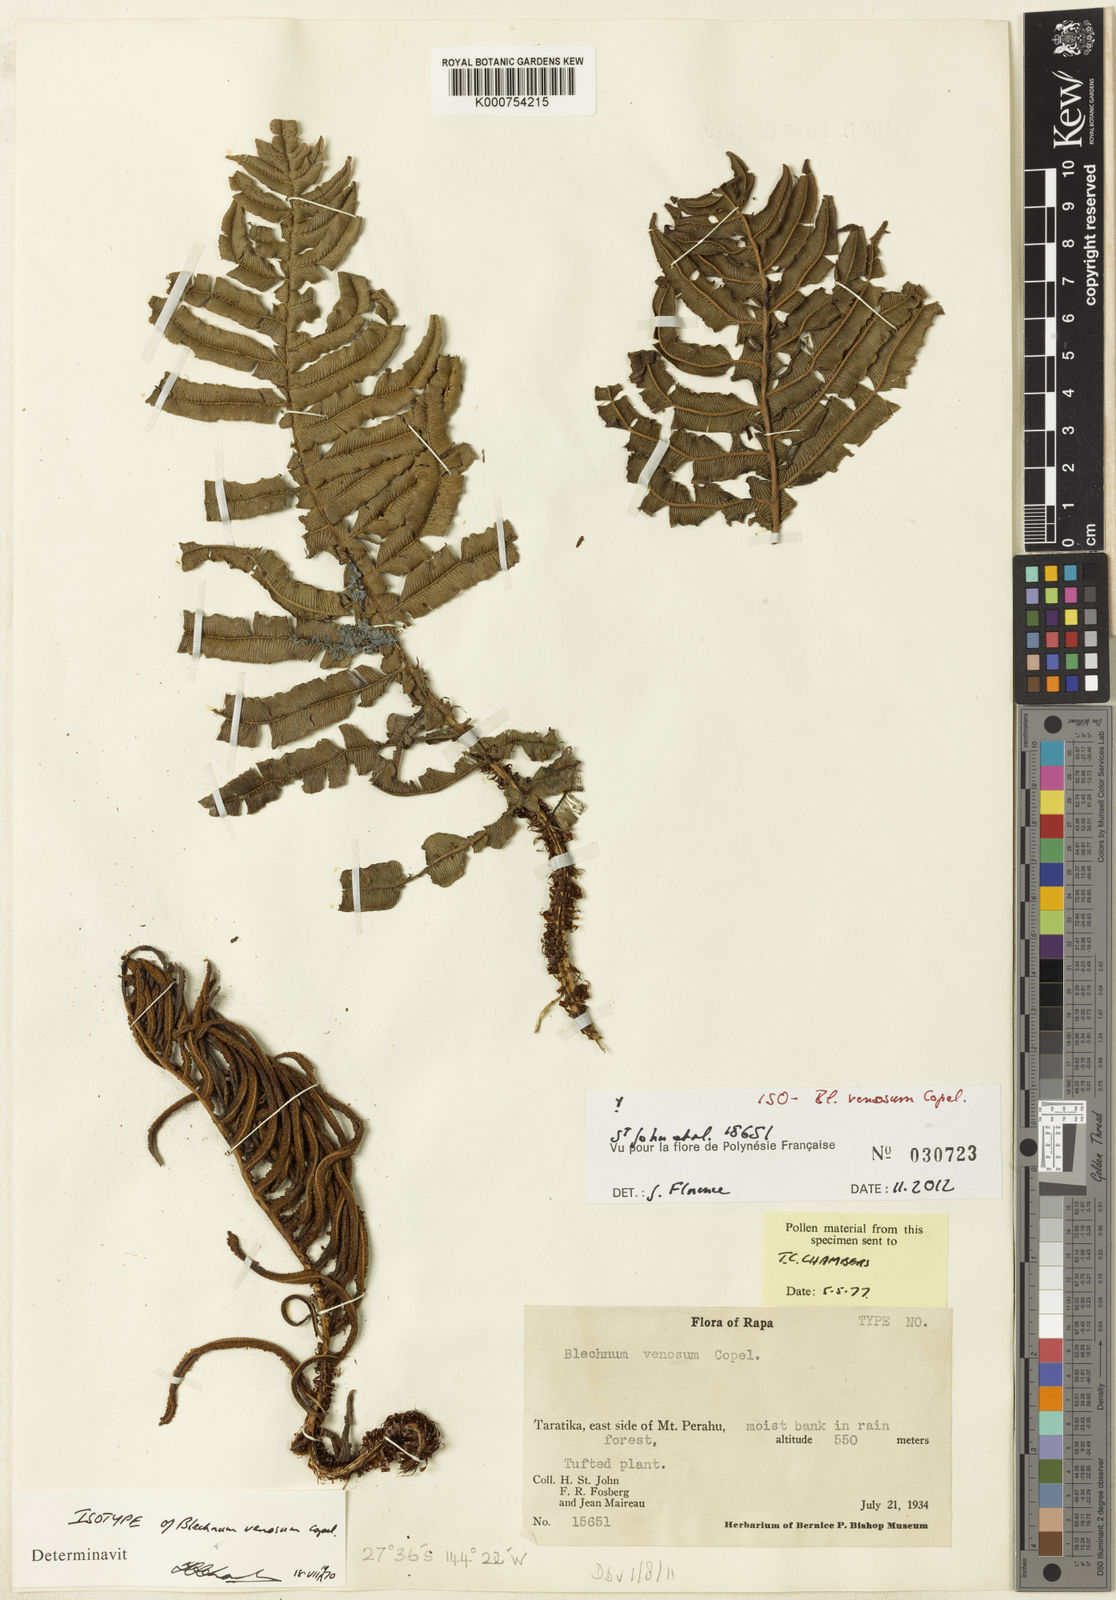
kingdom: Plantae
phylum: Tracheophyta
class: Polypodiopsida
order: Polypodiales
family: Blechnaceae
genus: Cranfillia
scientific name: Cranfillia venosa
